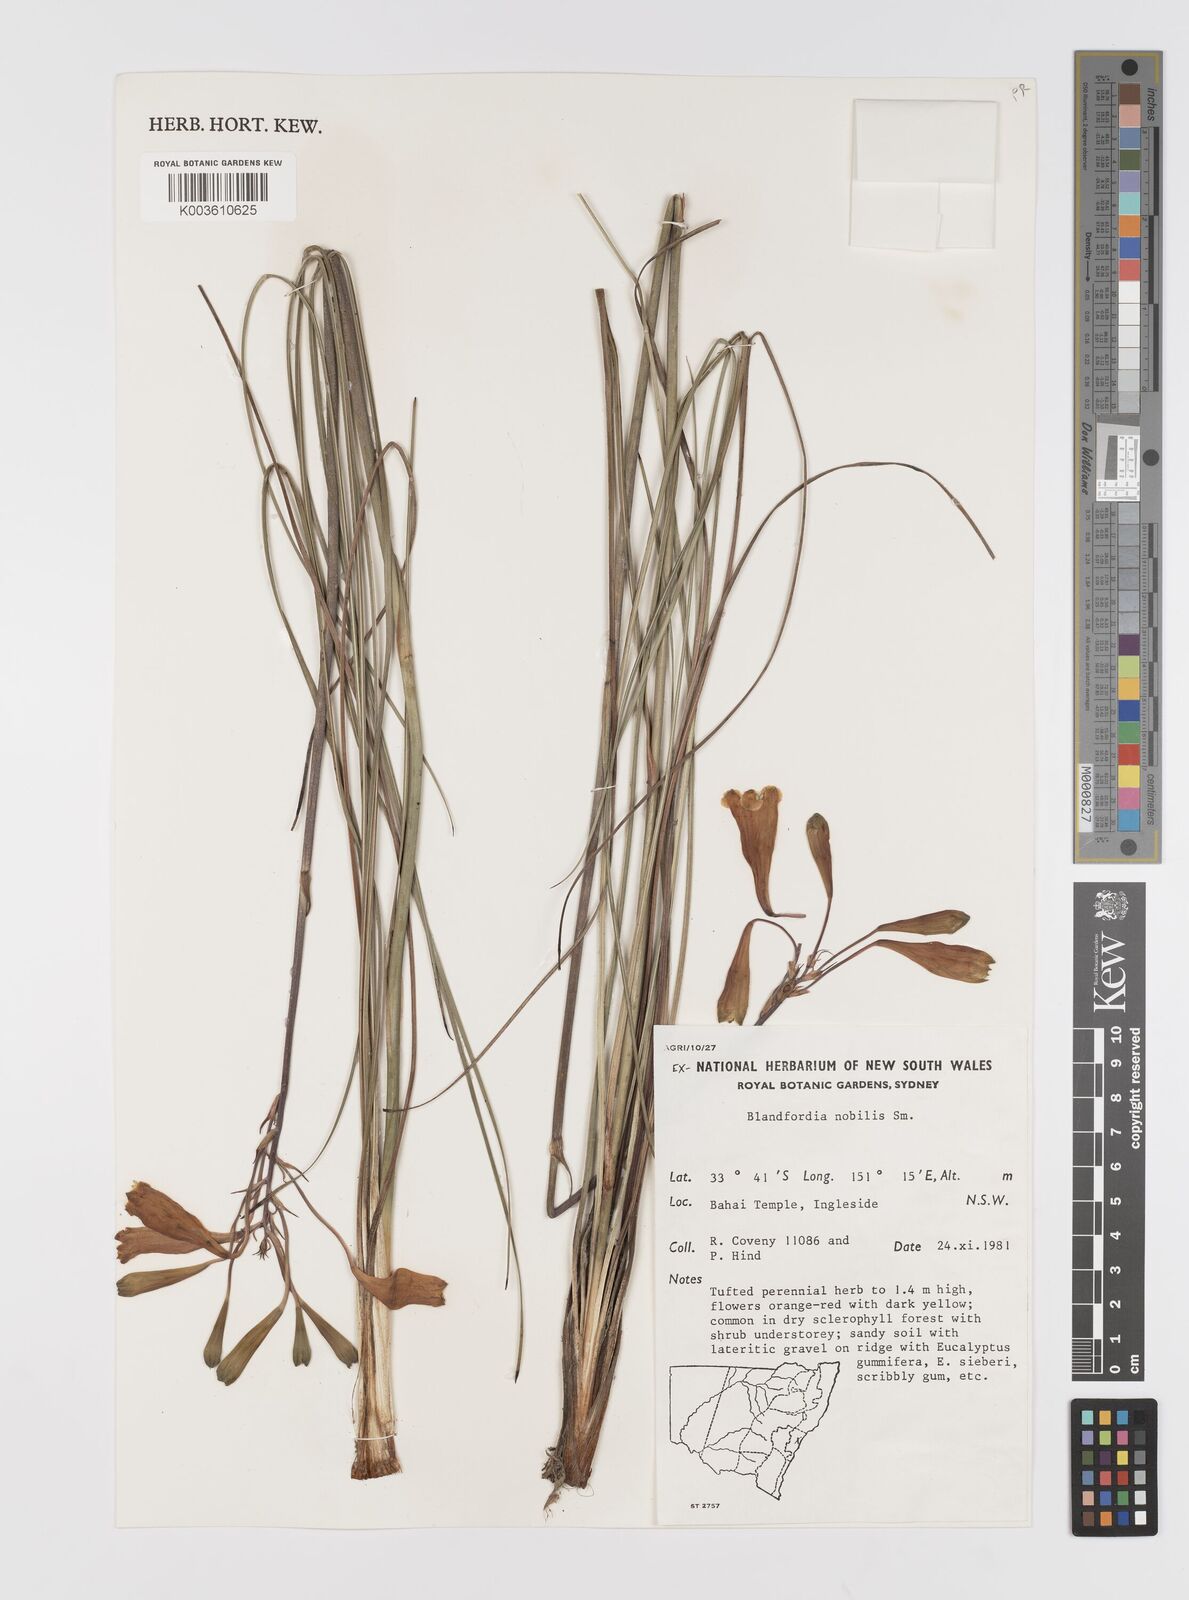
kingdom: Plantae
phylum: Tracheophyta
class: Liliopsida
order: Asparagales
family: Blandfordiaceae
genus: Blandfordia
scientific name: Blandfordia nobilis
